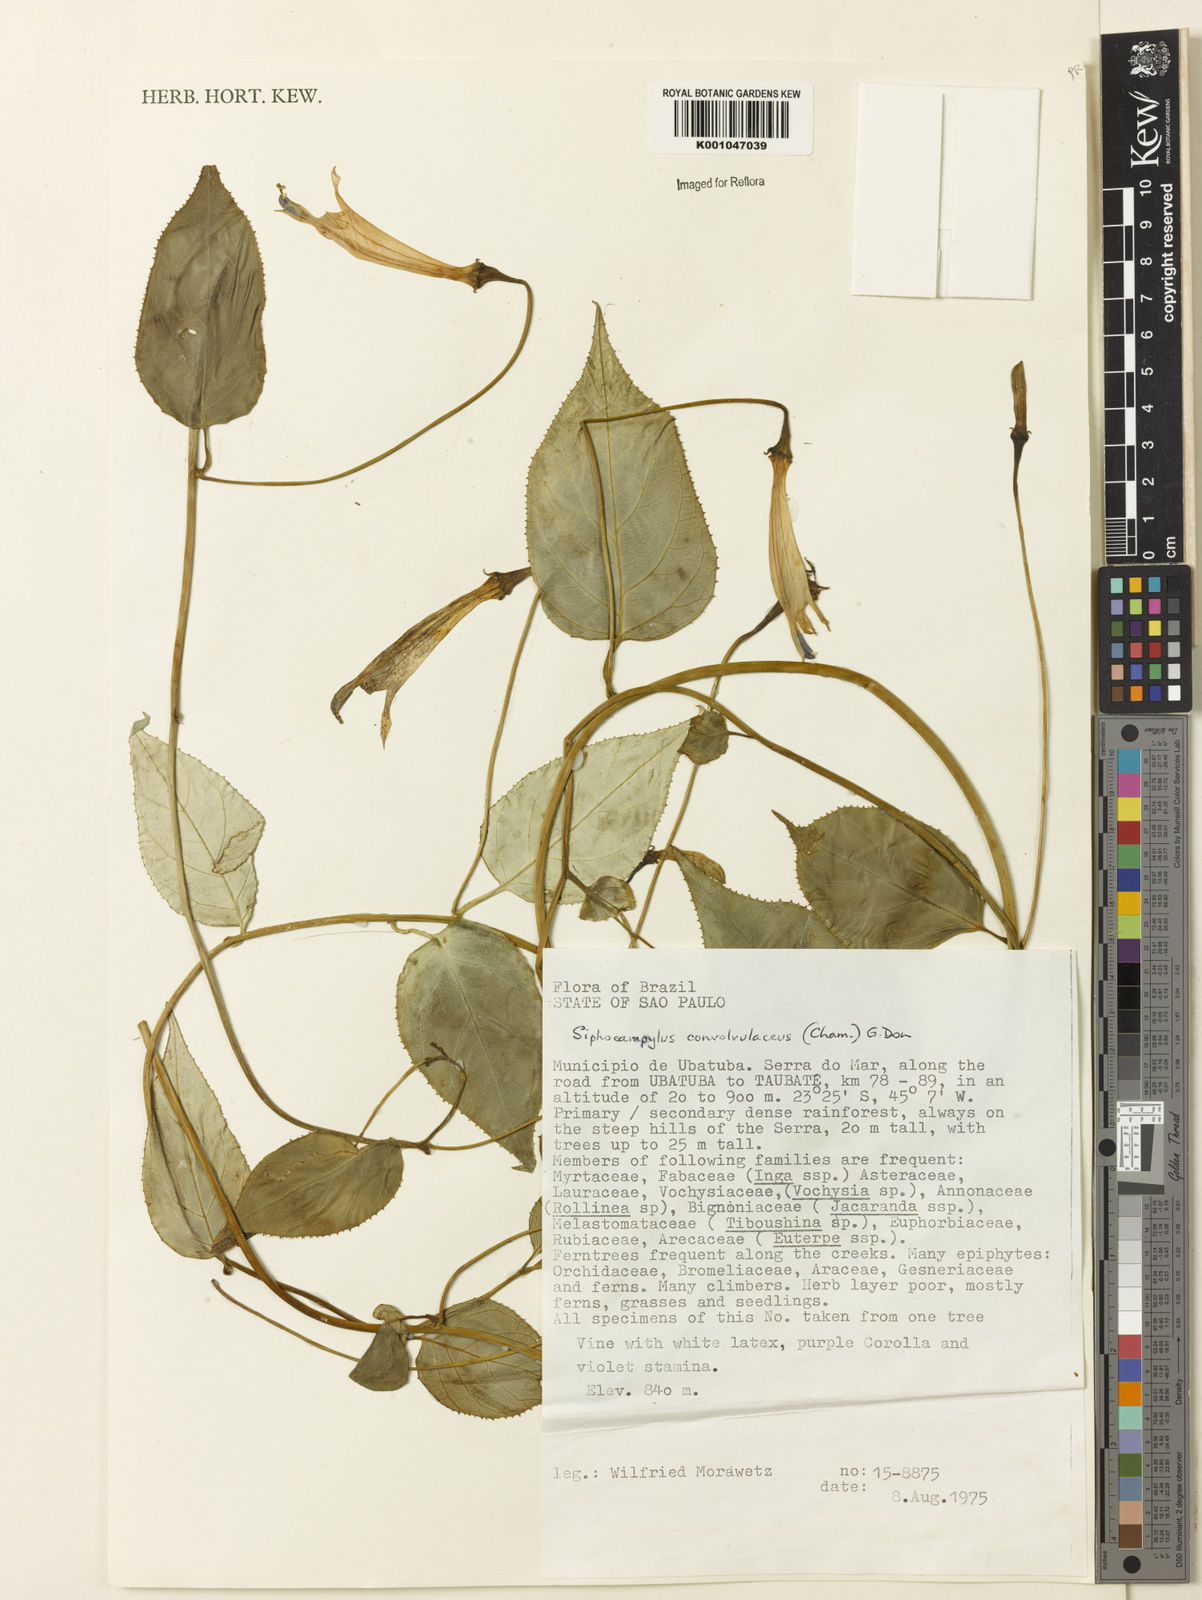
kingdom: Plantae
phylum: Tracheophyta
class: Magnoliopsida
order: Asterales
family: Campanulaceae
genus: Siphocampylus
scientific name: Siphocampylus convolvulaceus
